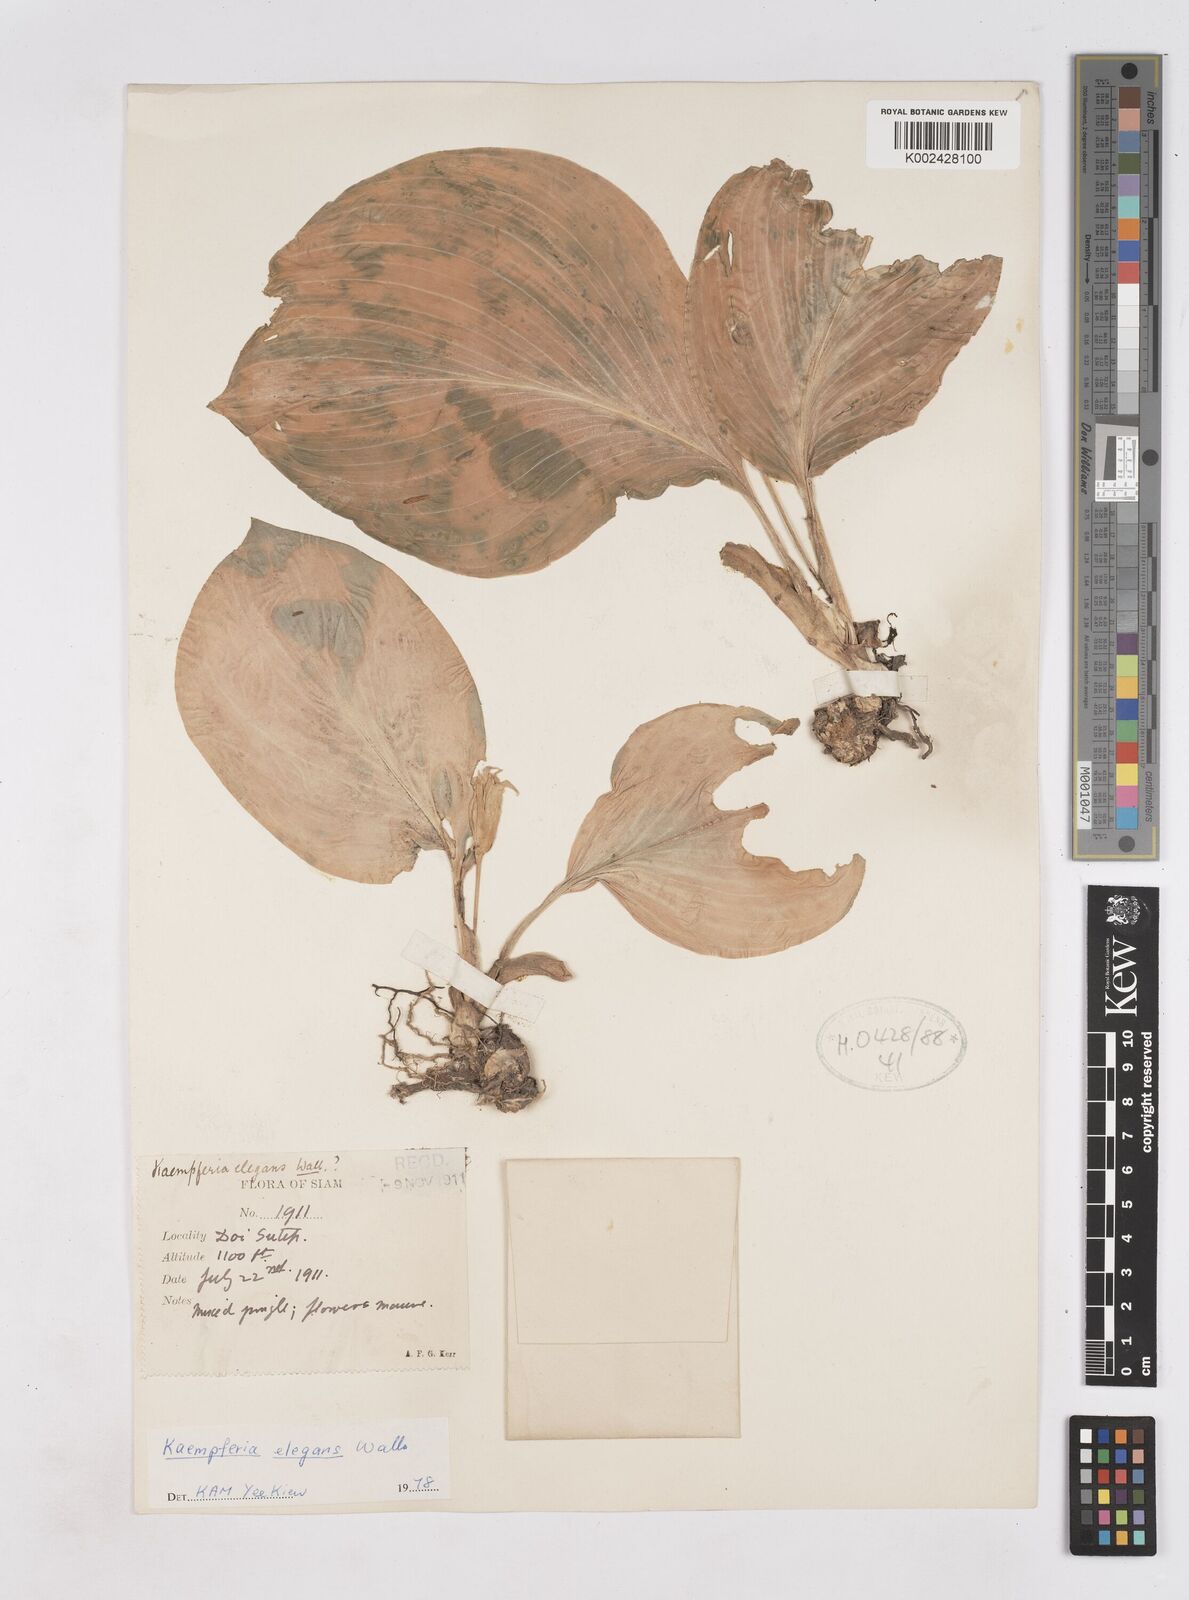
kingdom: Plantae
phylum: Tracheophyta
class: Liliopsida
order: Zingiberales
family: Zingiberaceae
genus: Kaempferia
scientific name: Kaempferia elegans
